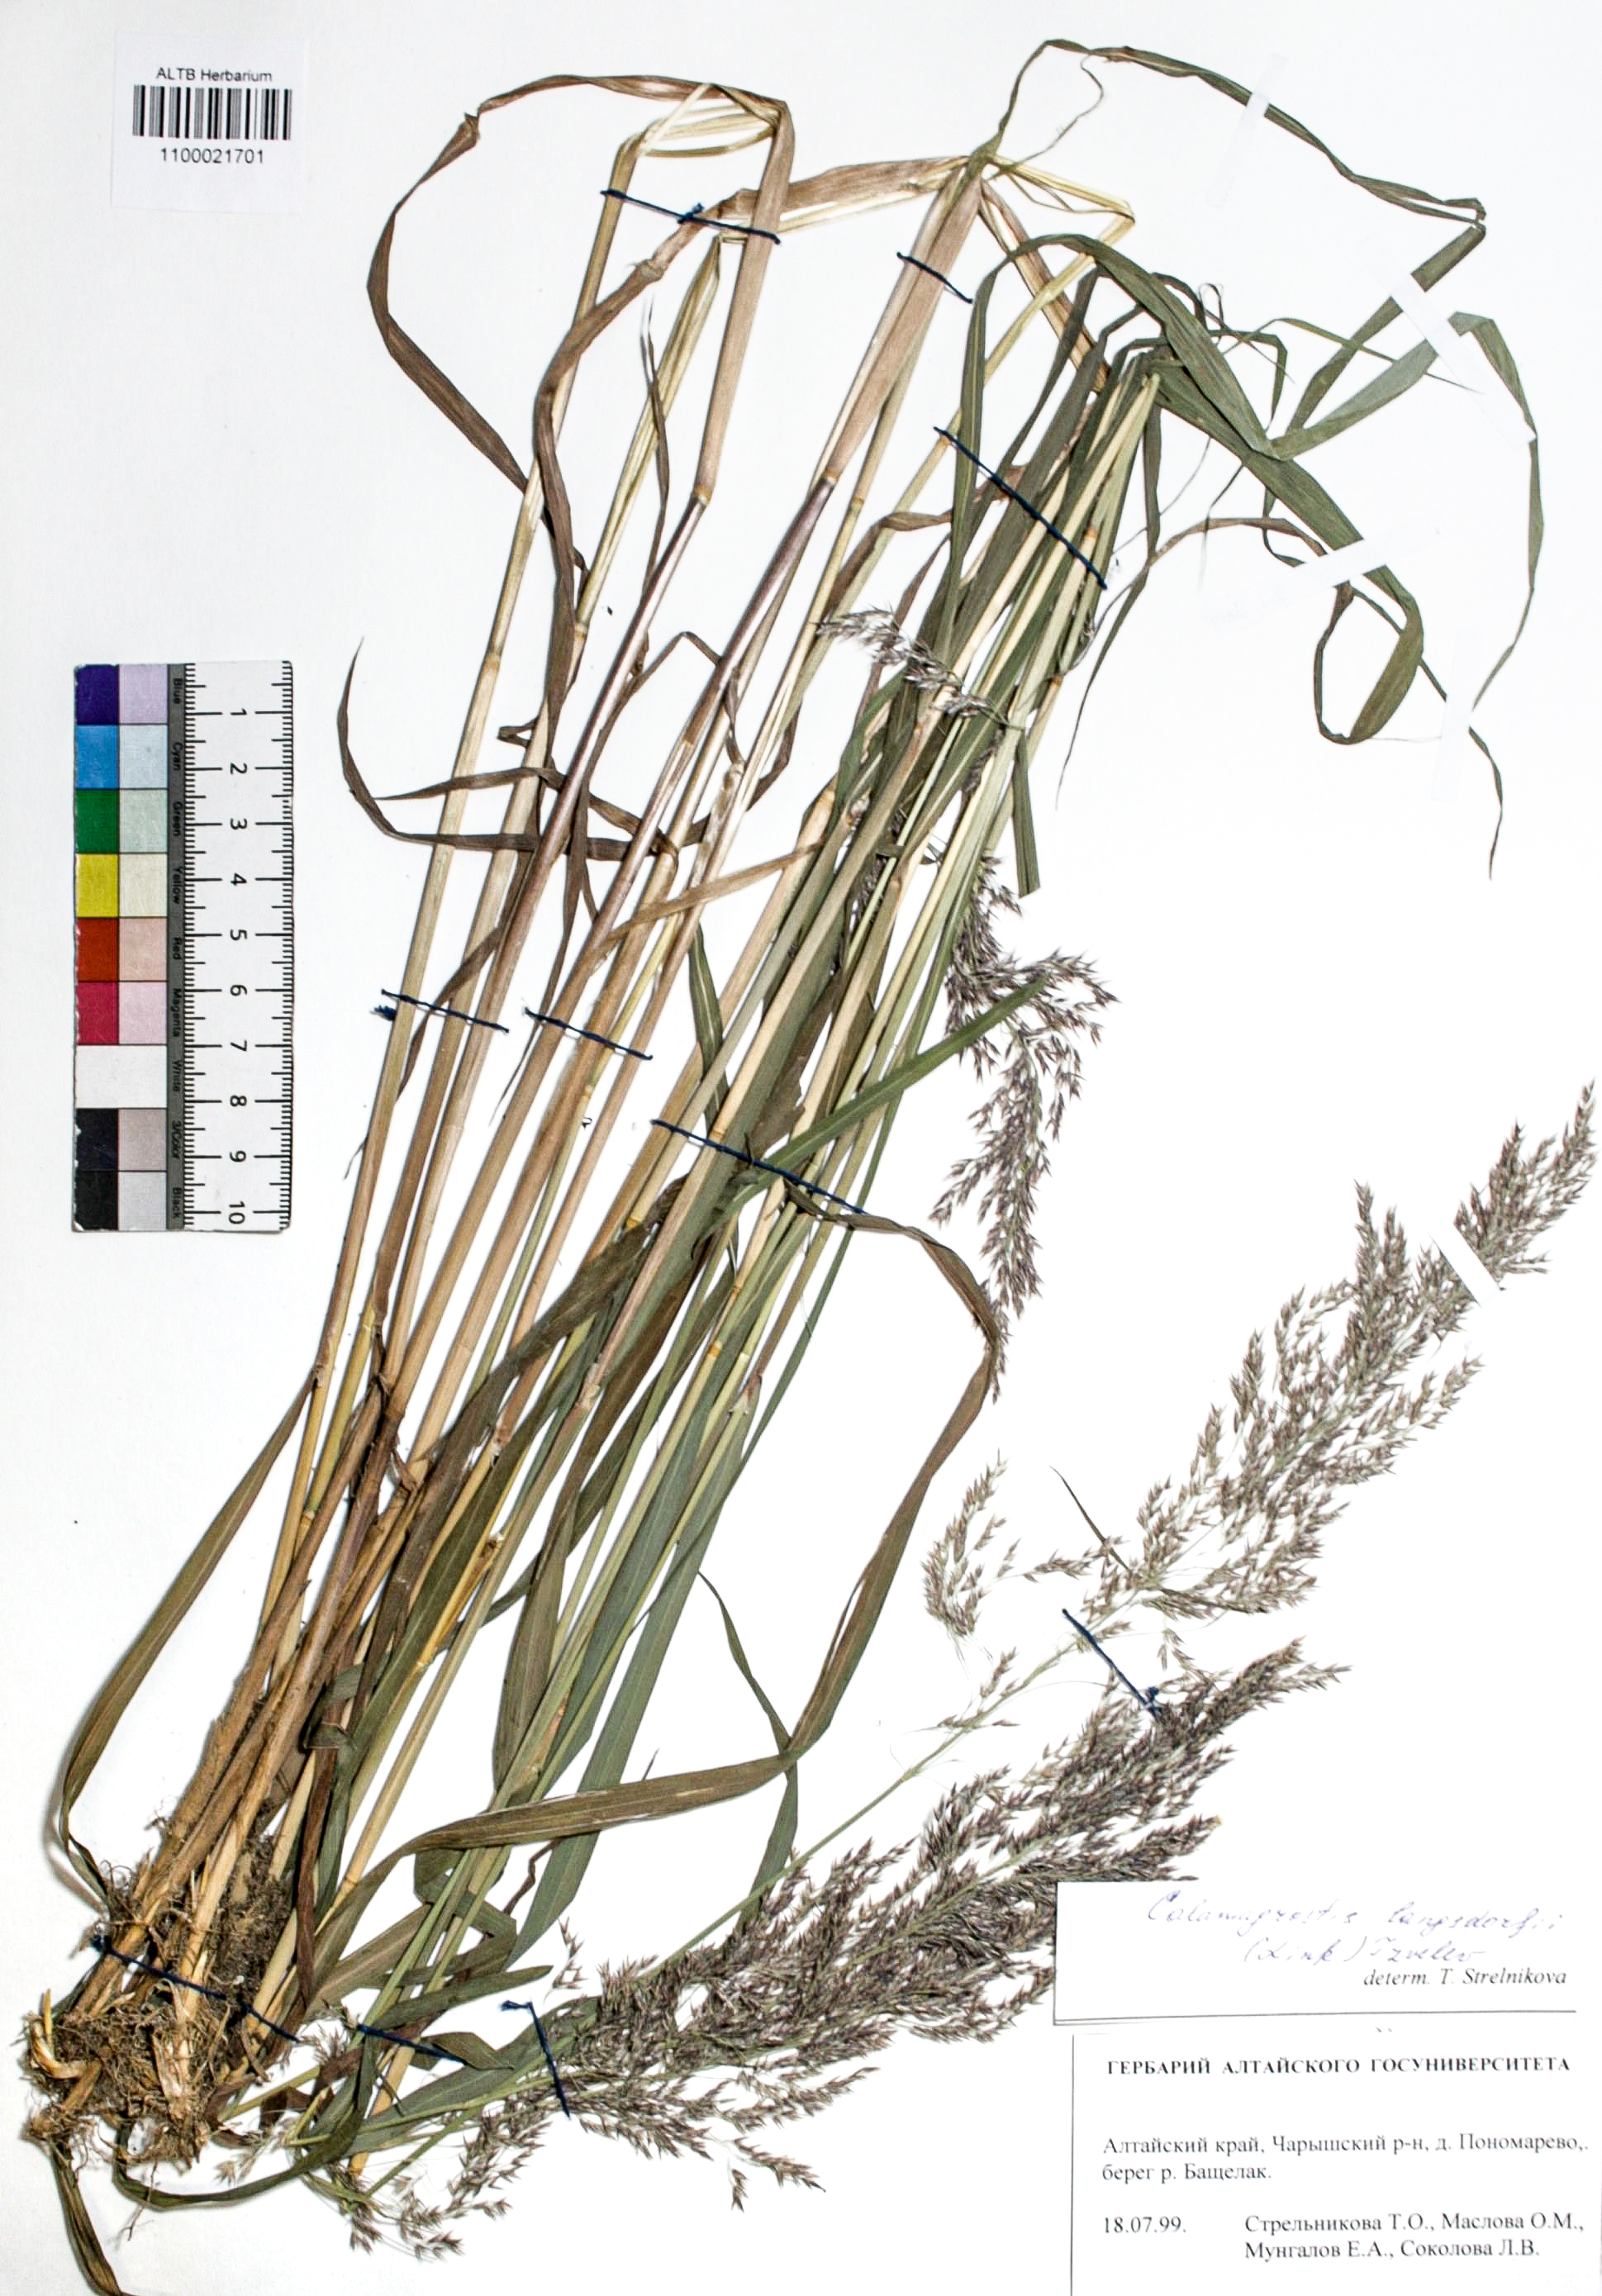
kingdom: Plantae
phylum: Tracheophyta
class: Liliopsida
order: Poales
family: Poaceae
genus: Calamagrostis
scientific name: Calamagrostis purpurea
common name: Scandinavian small-reed
